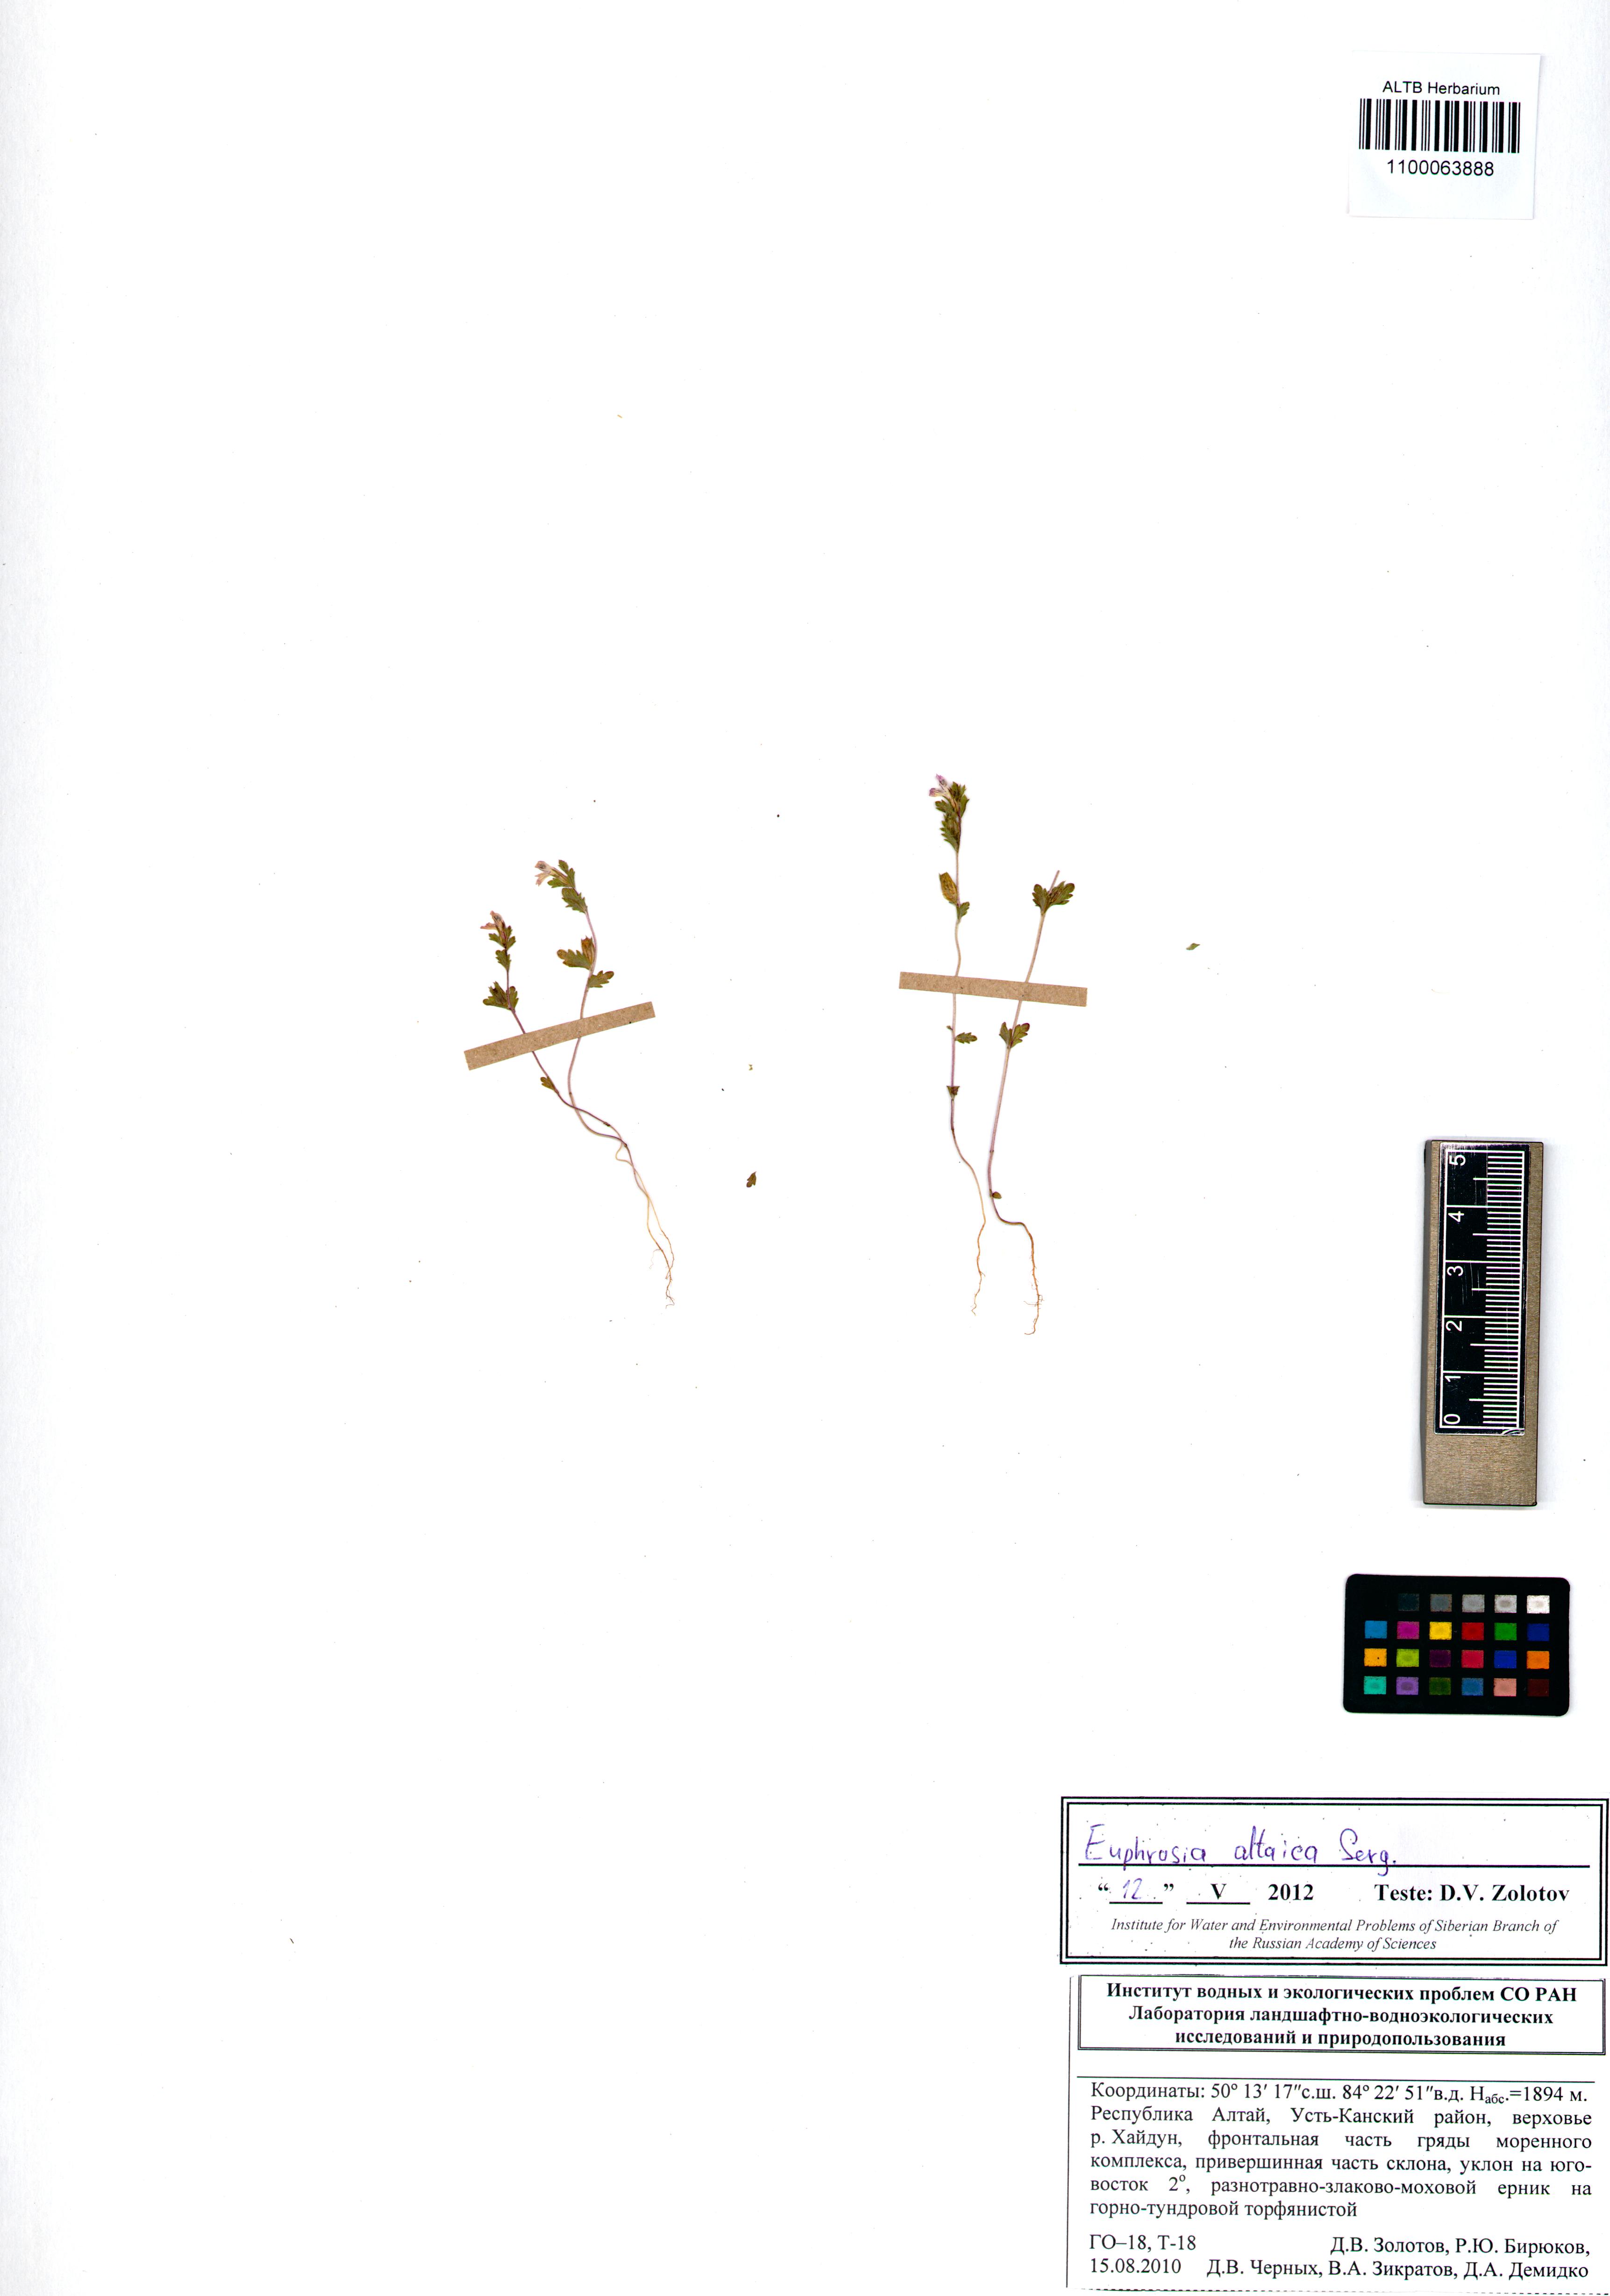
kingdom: Plantae
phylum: Tracheophyta
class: Magnoliopsida
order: Lamiales
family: Orobanchaceae
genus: Euphrasia
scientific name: Euphrasia altaica
